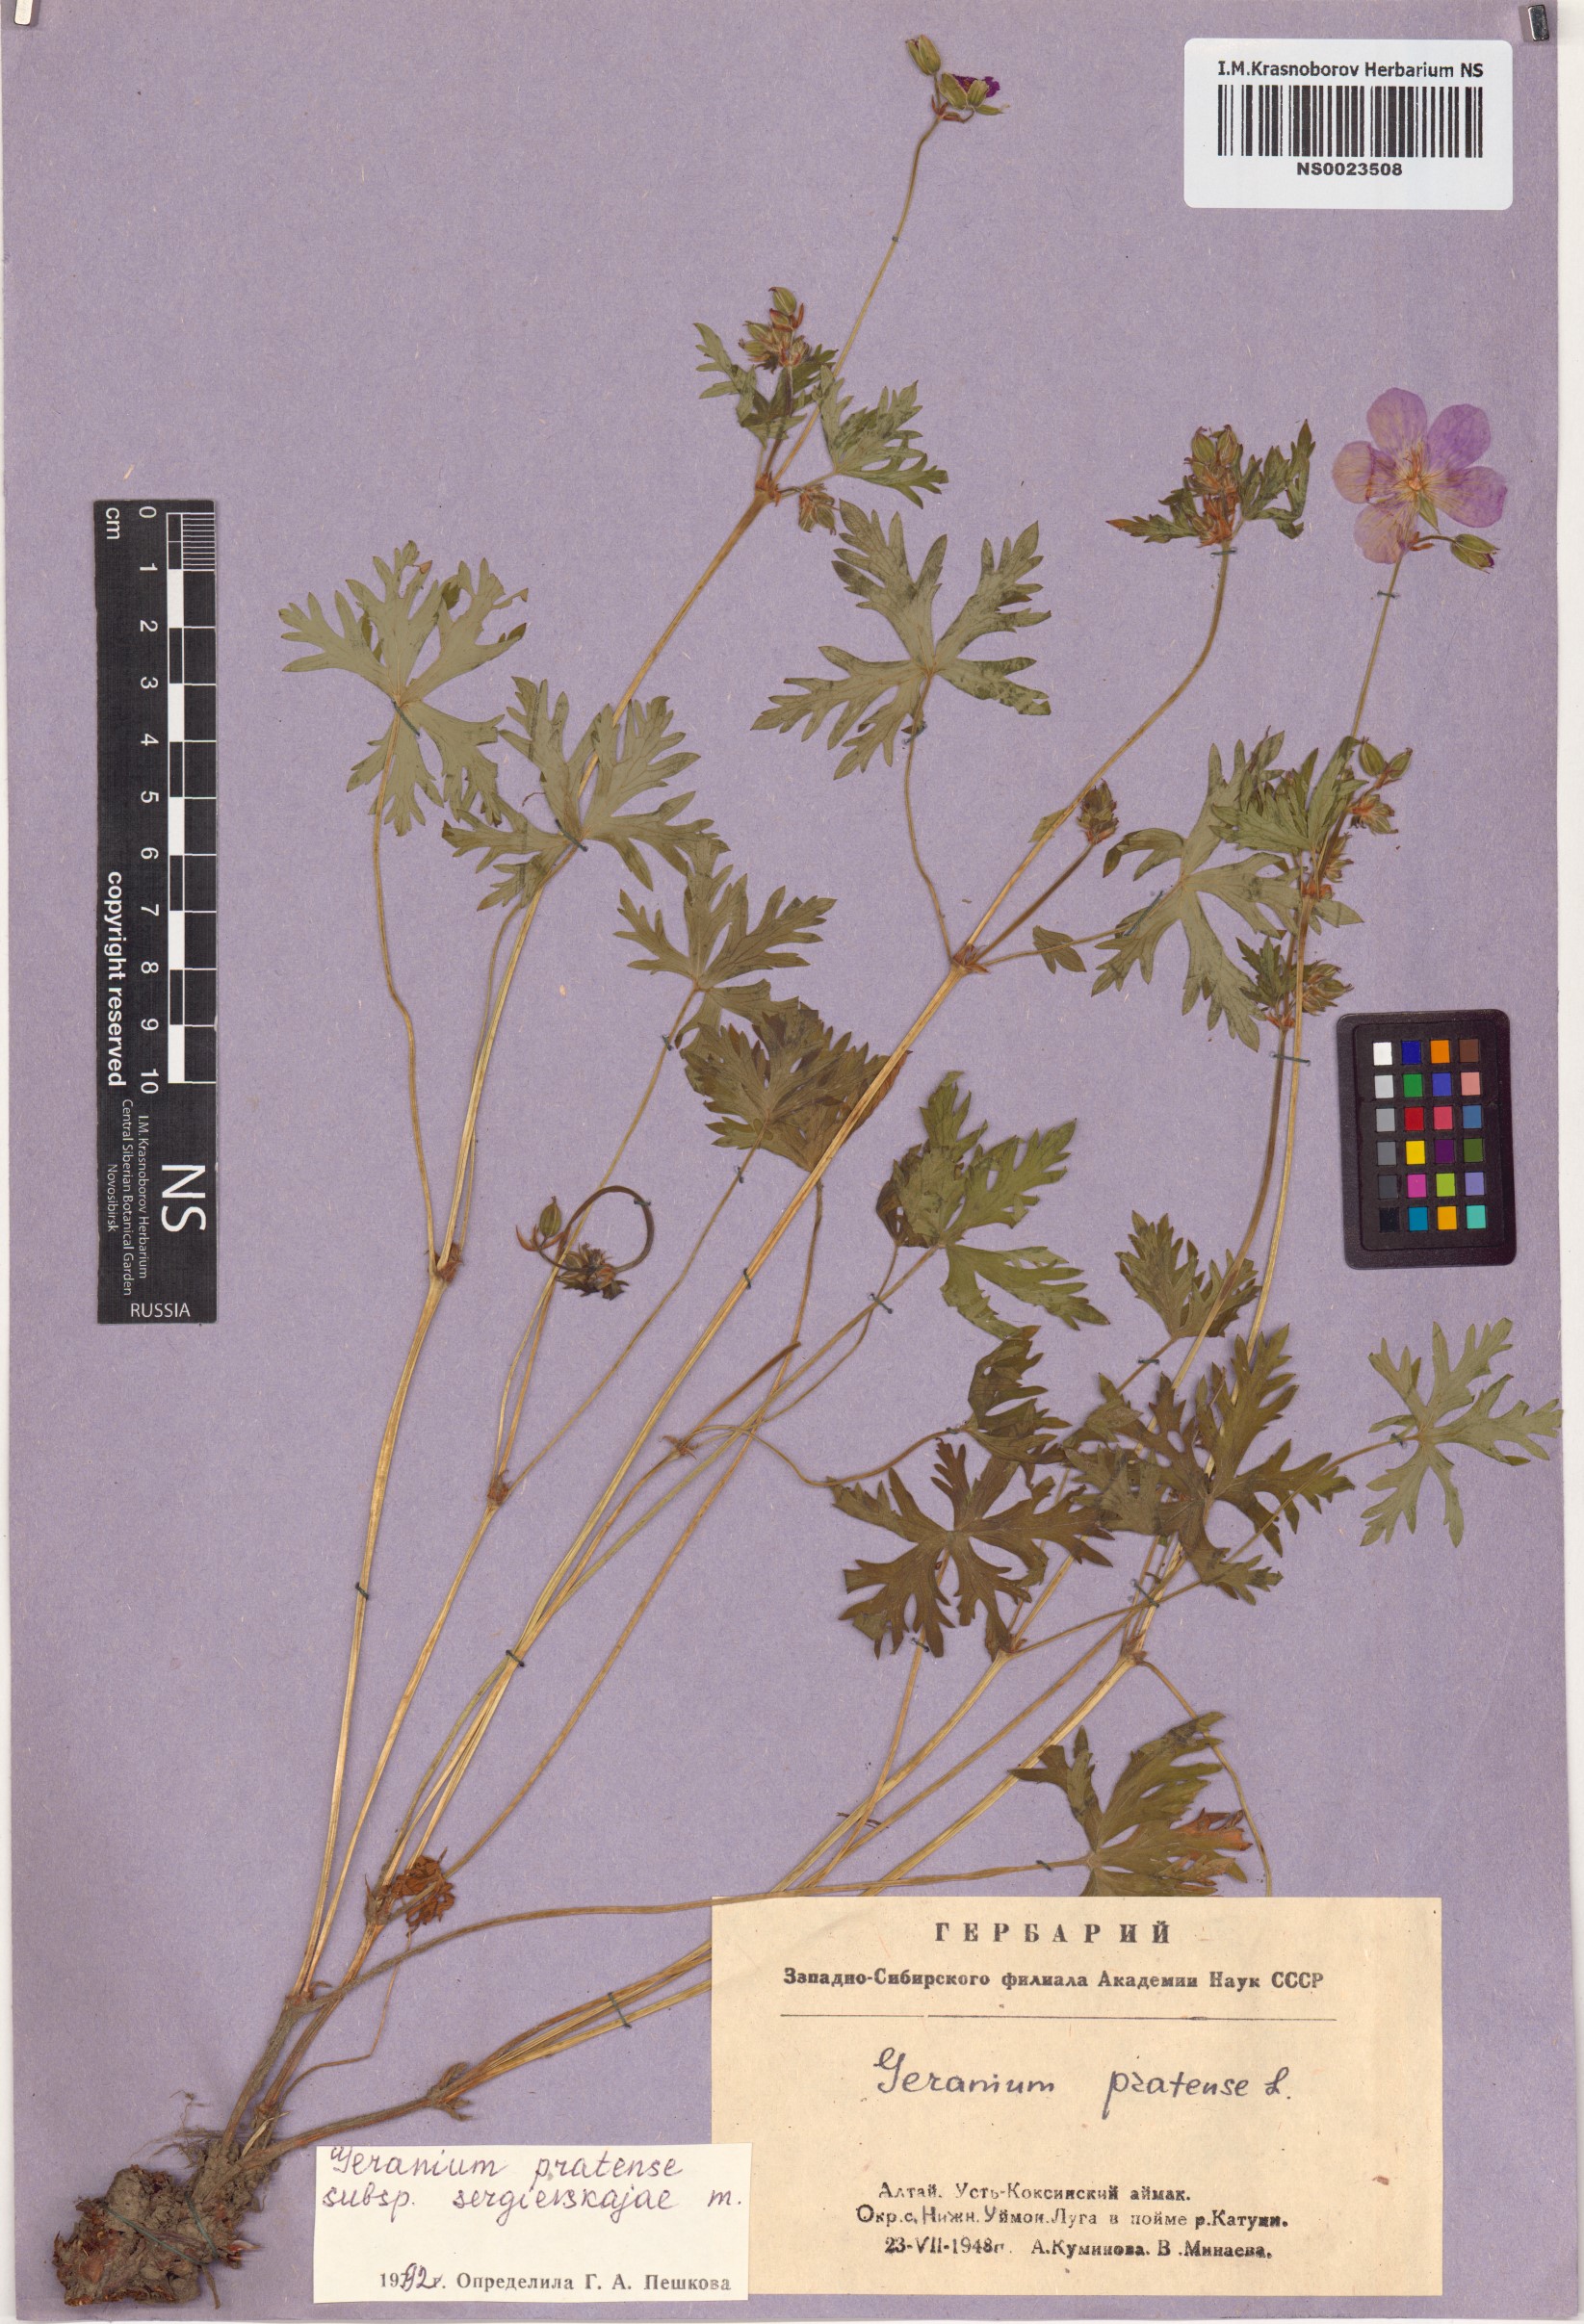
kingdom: Plantae
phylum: Tracheophyta
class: Magnoliopsida
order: Geraniales
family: Geraniaceae
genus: Geranium
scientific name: Geranium pratense
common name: Meadow crane's-bill
